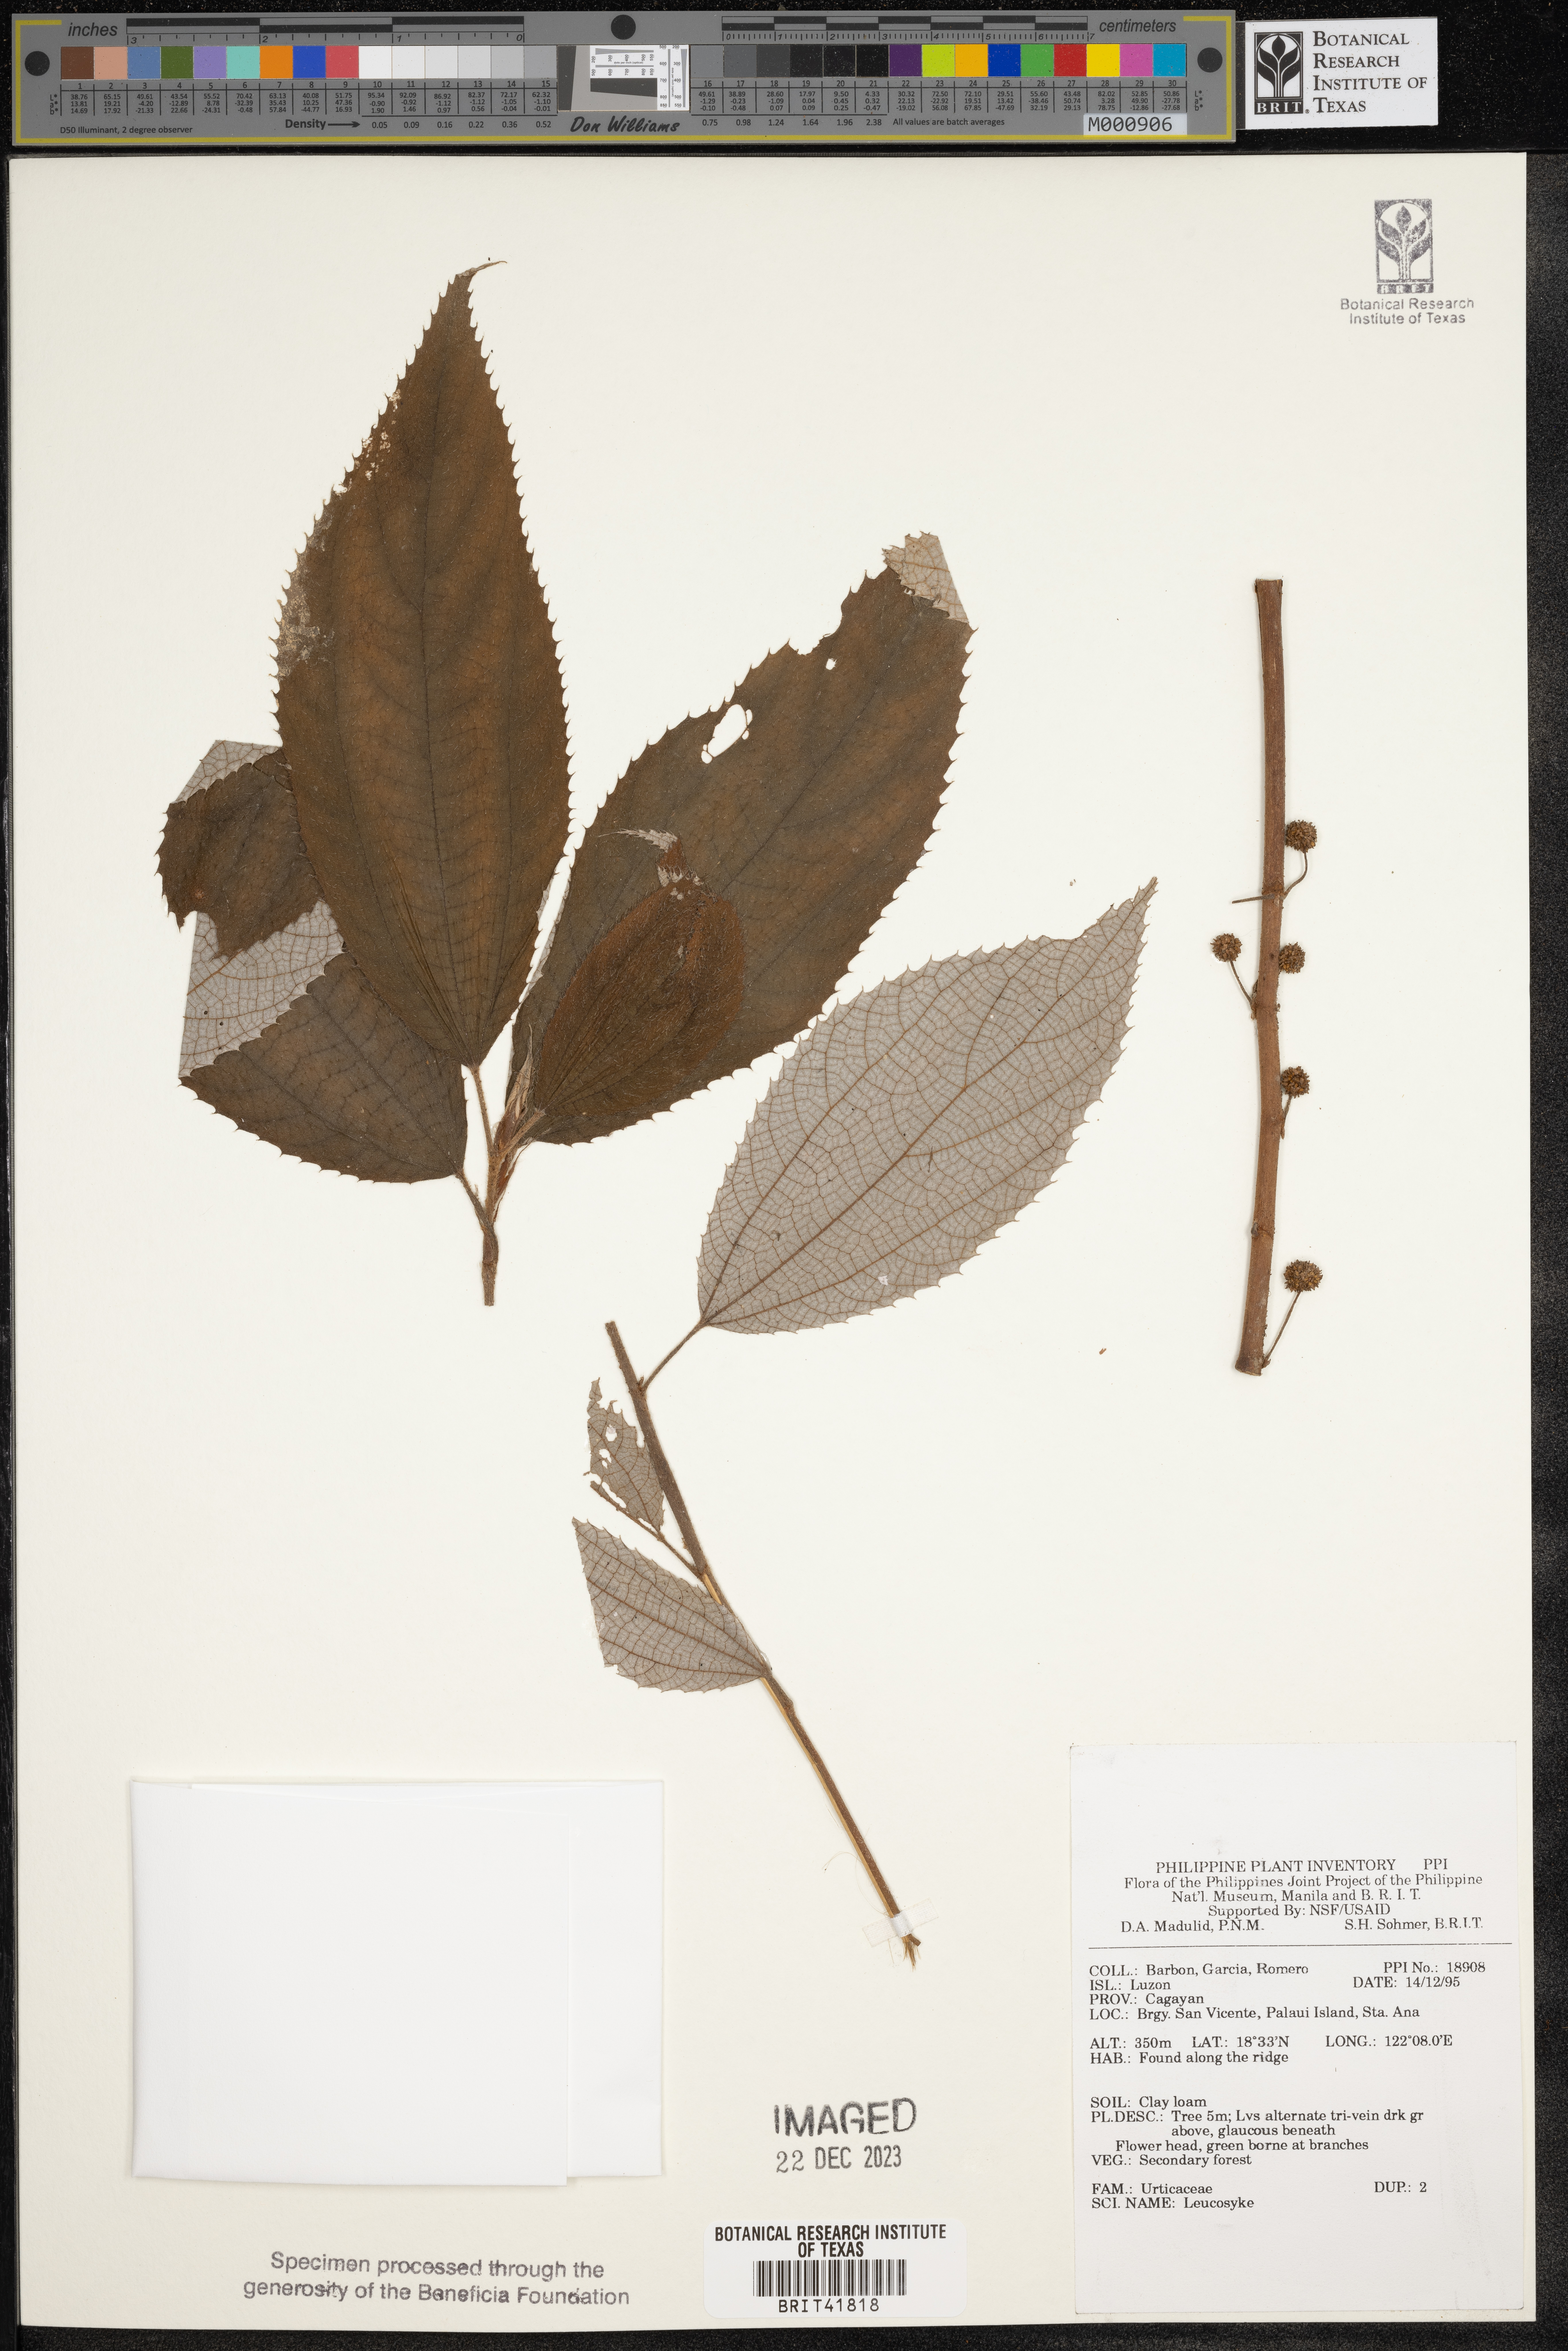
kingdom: Plantae
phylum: Tracheophyta
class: Magnoliopsida
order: Rosales
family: Urticaceae
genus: Leucosyke
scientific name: Leucosyke
